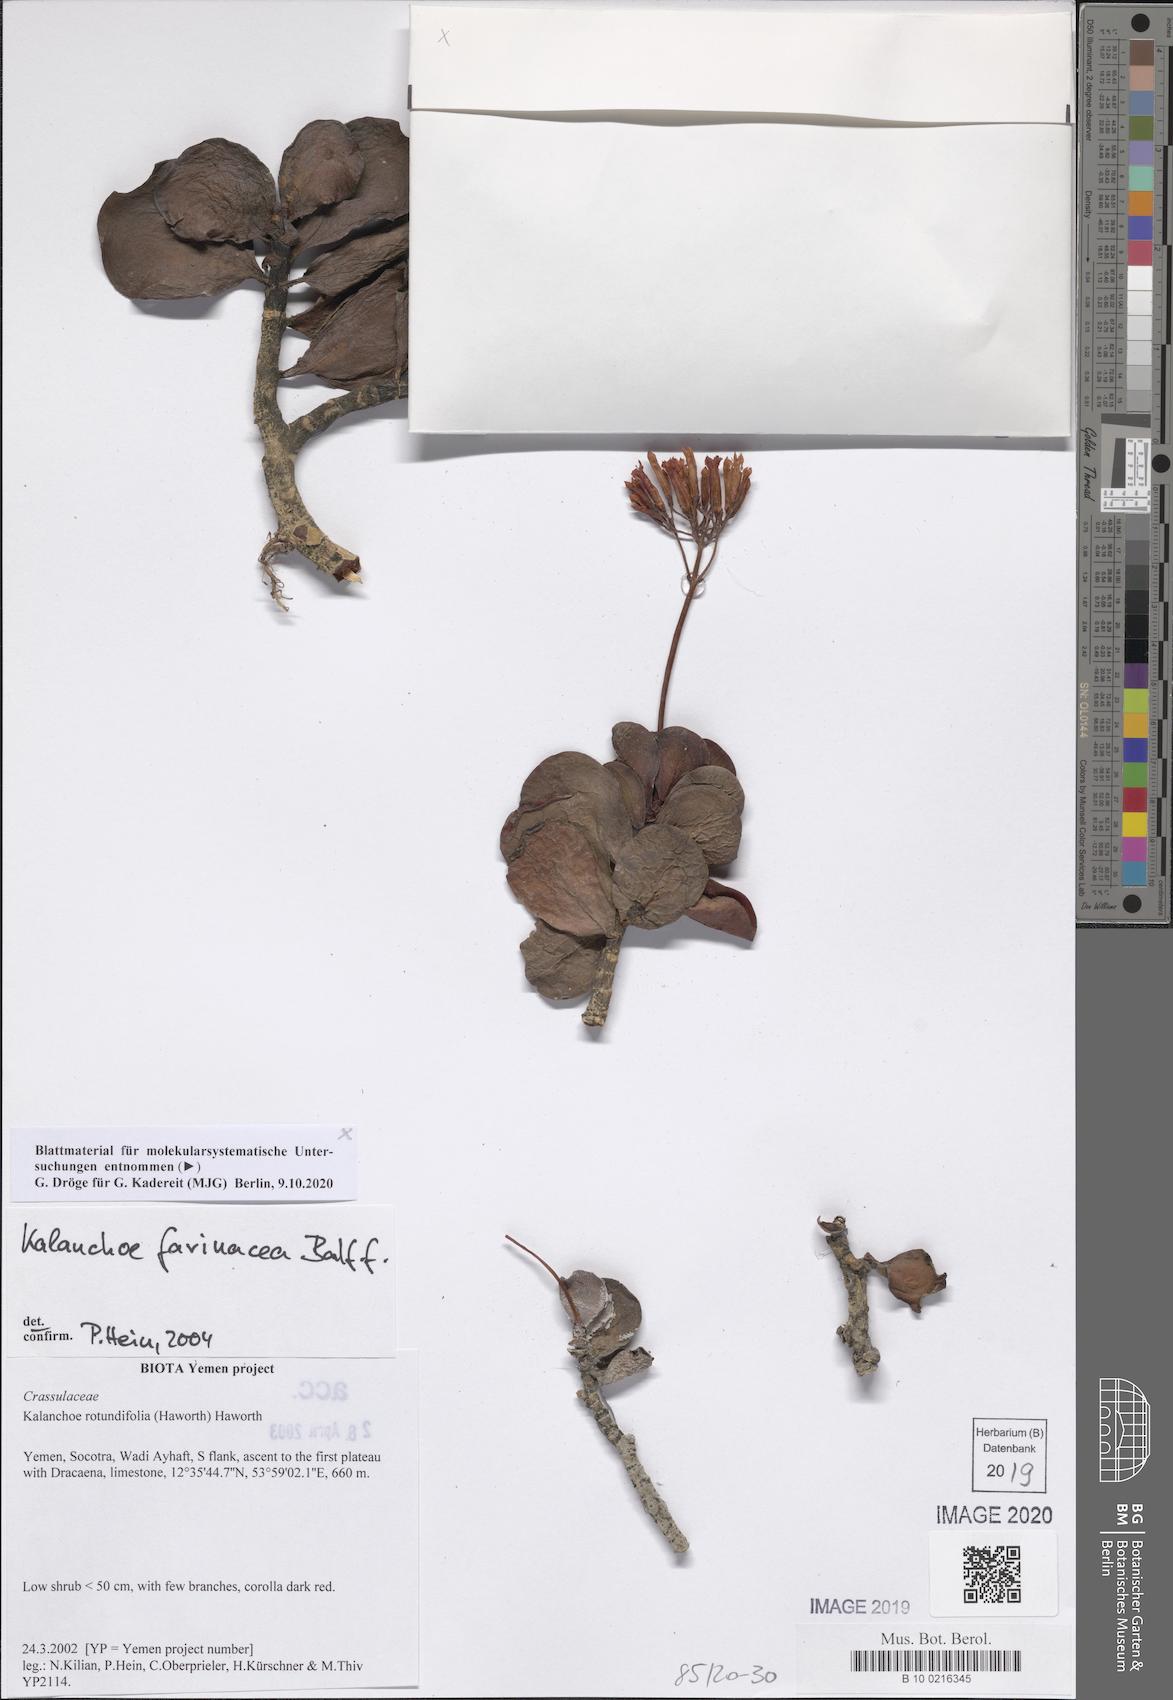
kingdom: Plantae
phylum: Tracheophyta
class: Magnoliopsida
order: Saxifragales
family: Crassulaceae
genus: Kalanchoe
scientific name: Kalanchoe farinacea
